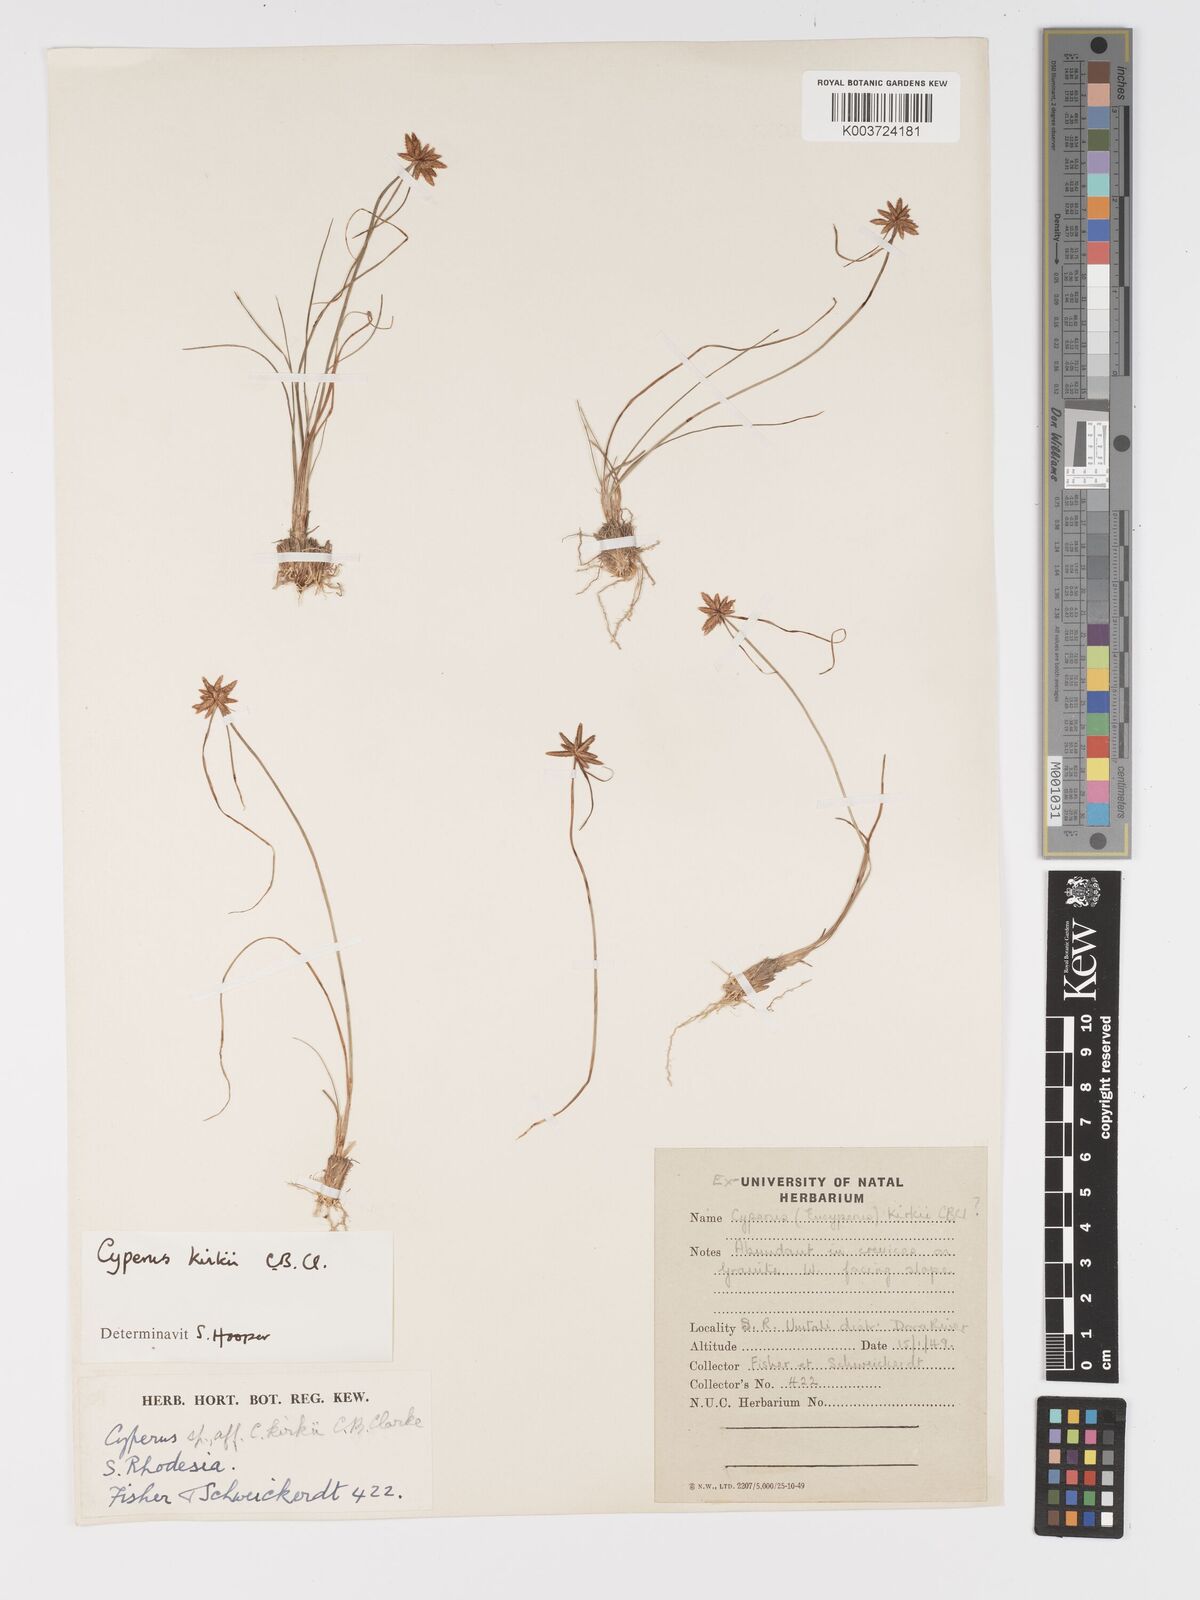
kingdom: Plantae
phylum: Tracheophyta
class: Liliopsida
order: Poales
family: Cyperaceae
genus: Cyperus
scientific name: Cyperus rupestris
